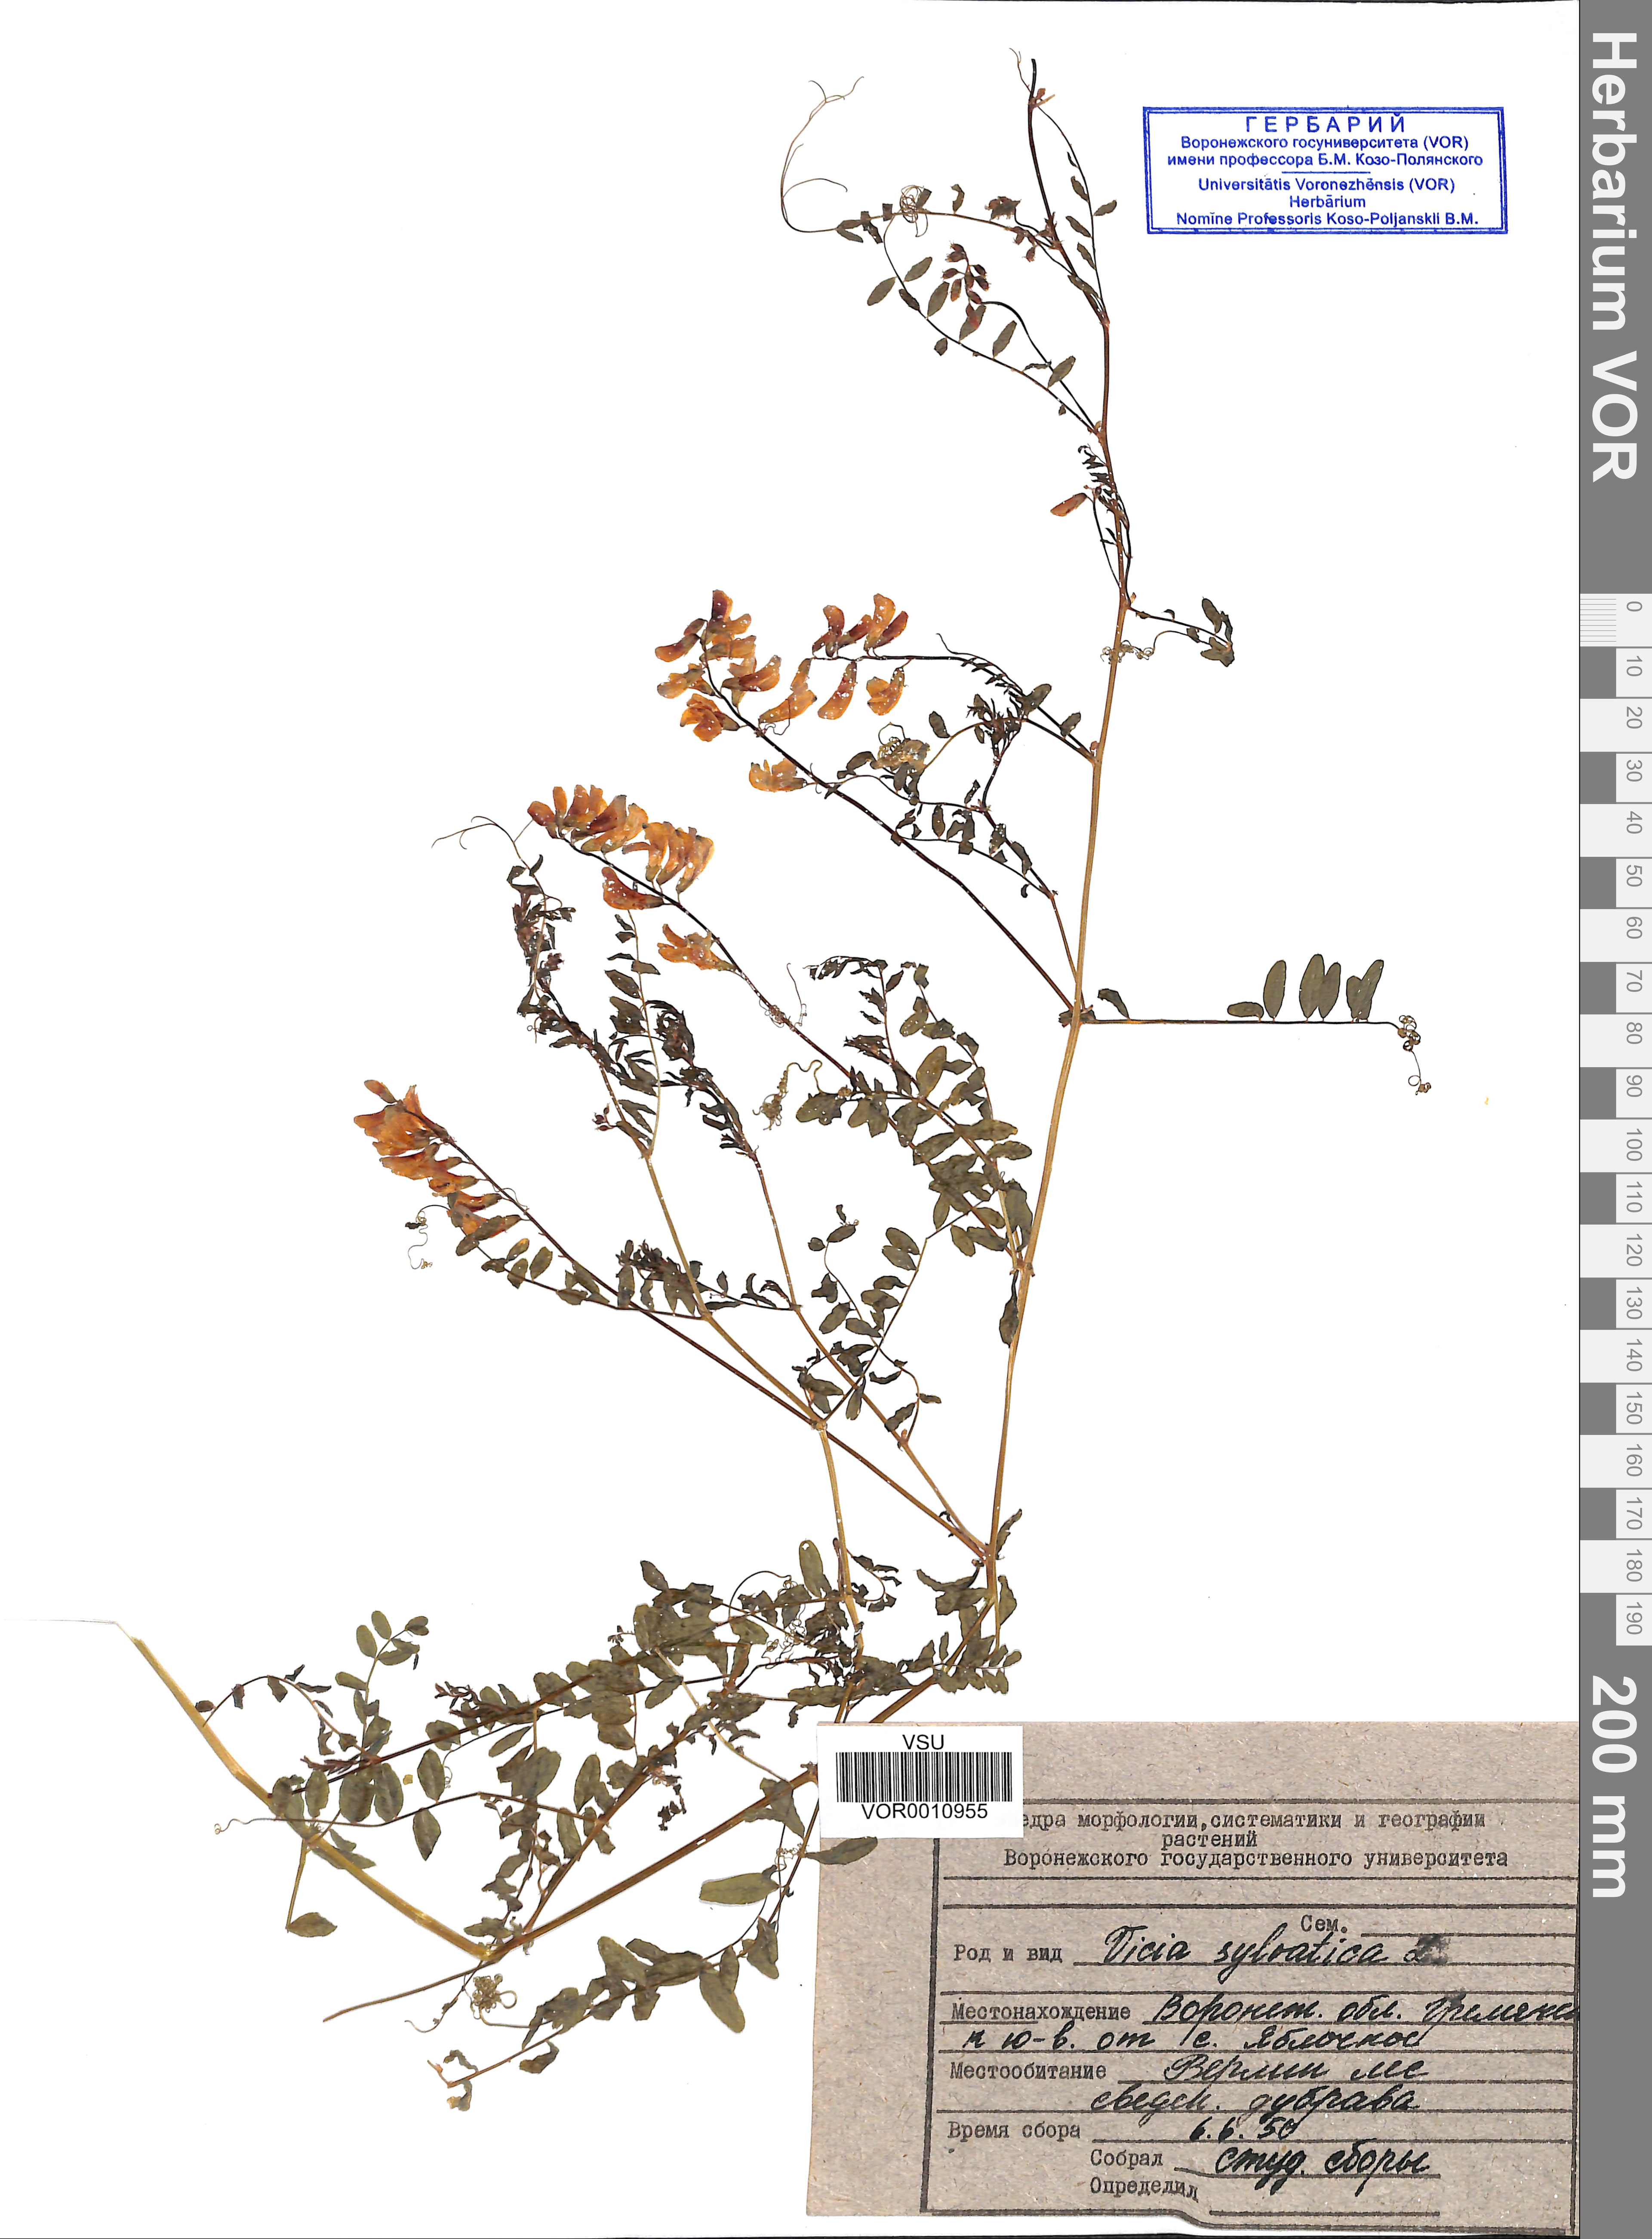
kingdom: Plantae
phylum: Tracheophyta
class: Magnoliopsida
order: Fabales
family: Fabaceae
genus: Vicia
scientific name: Vicia sylvatica
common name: Wood vetch
